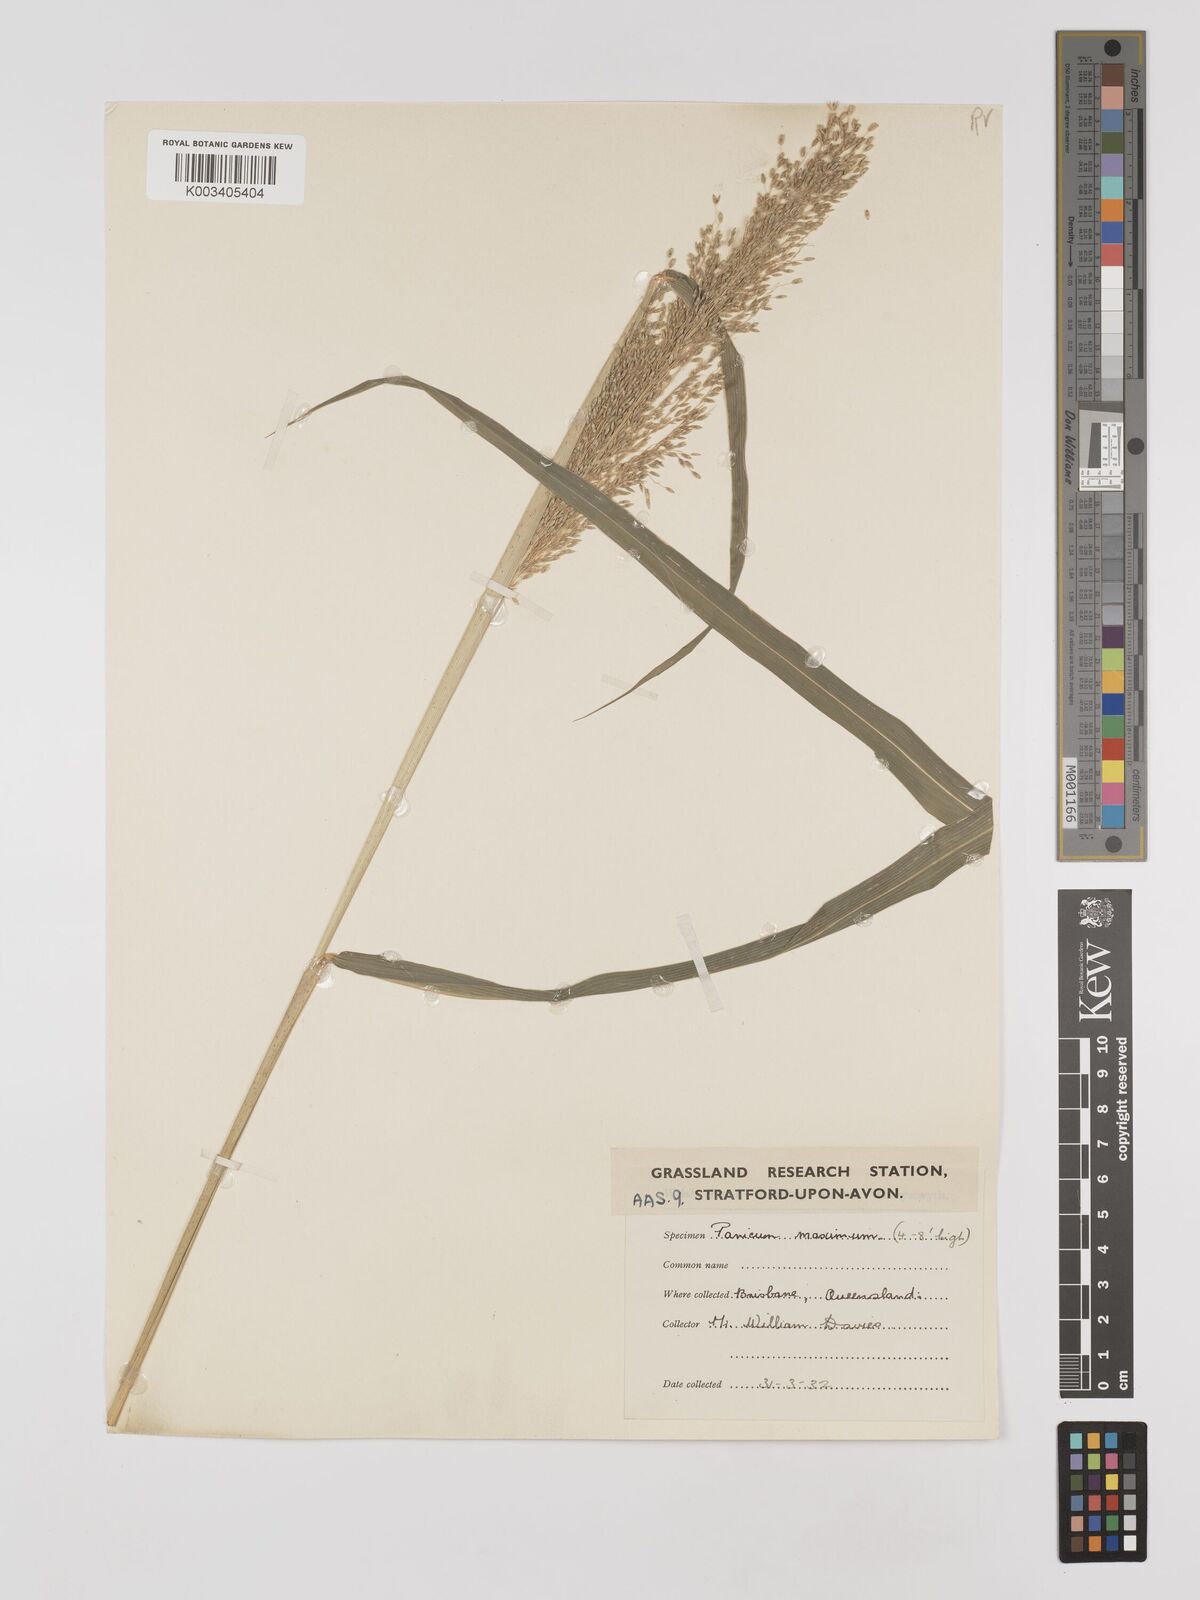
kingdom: Plantae
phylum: Tracheophyta
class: Liliopsida
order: Poales
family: Poaceae
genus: Megathyrsus
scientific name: Megathyrsus maximus
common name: Guineagrass
